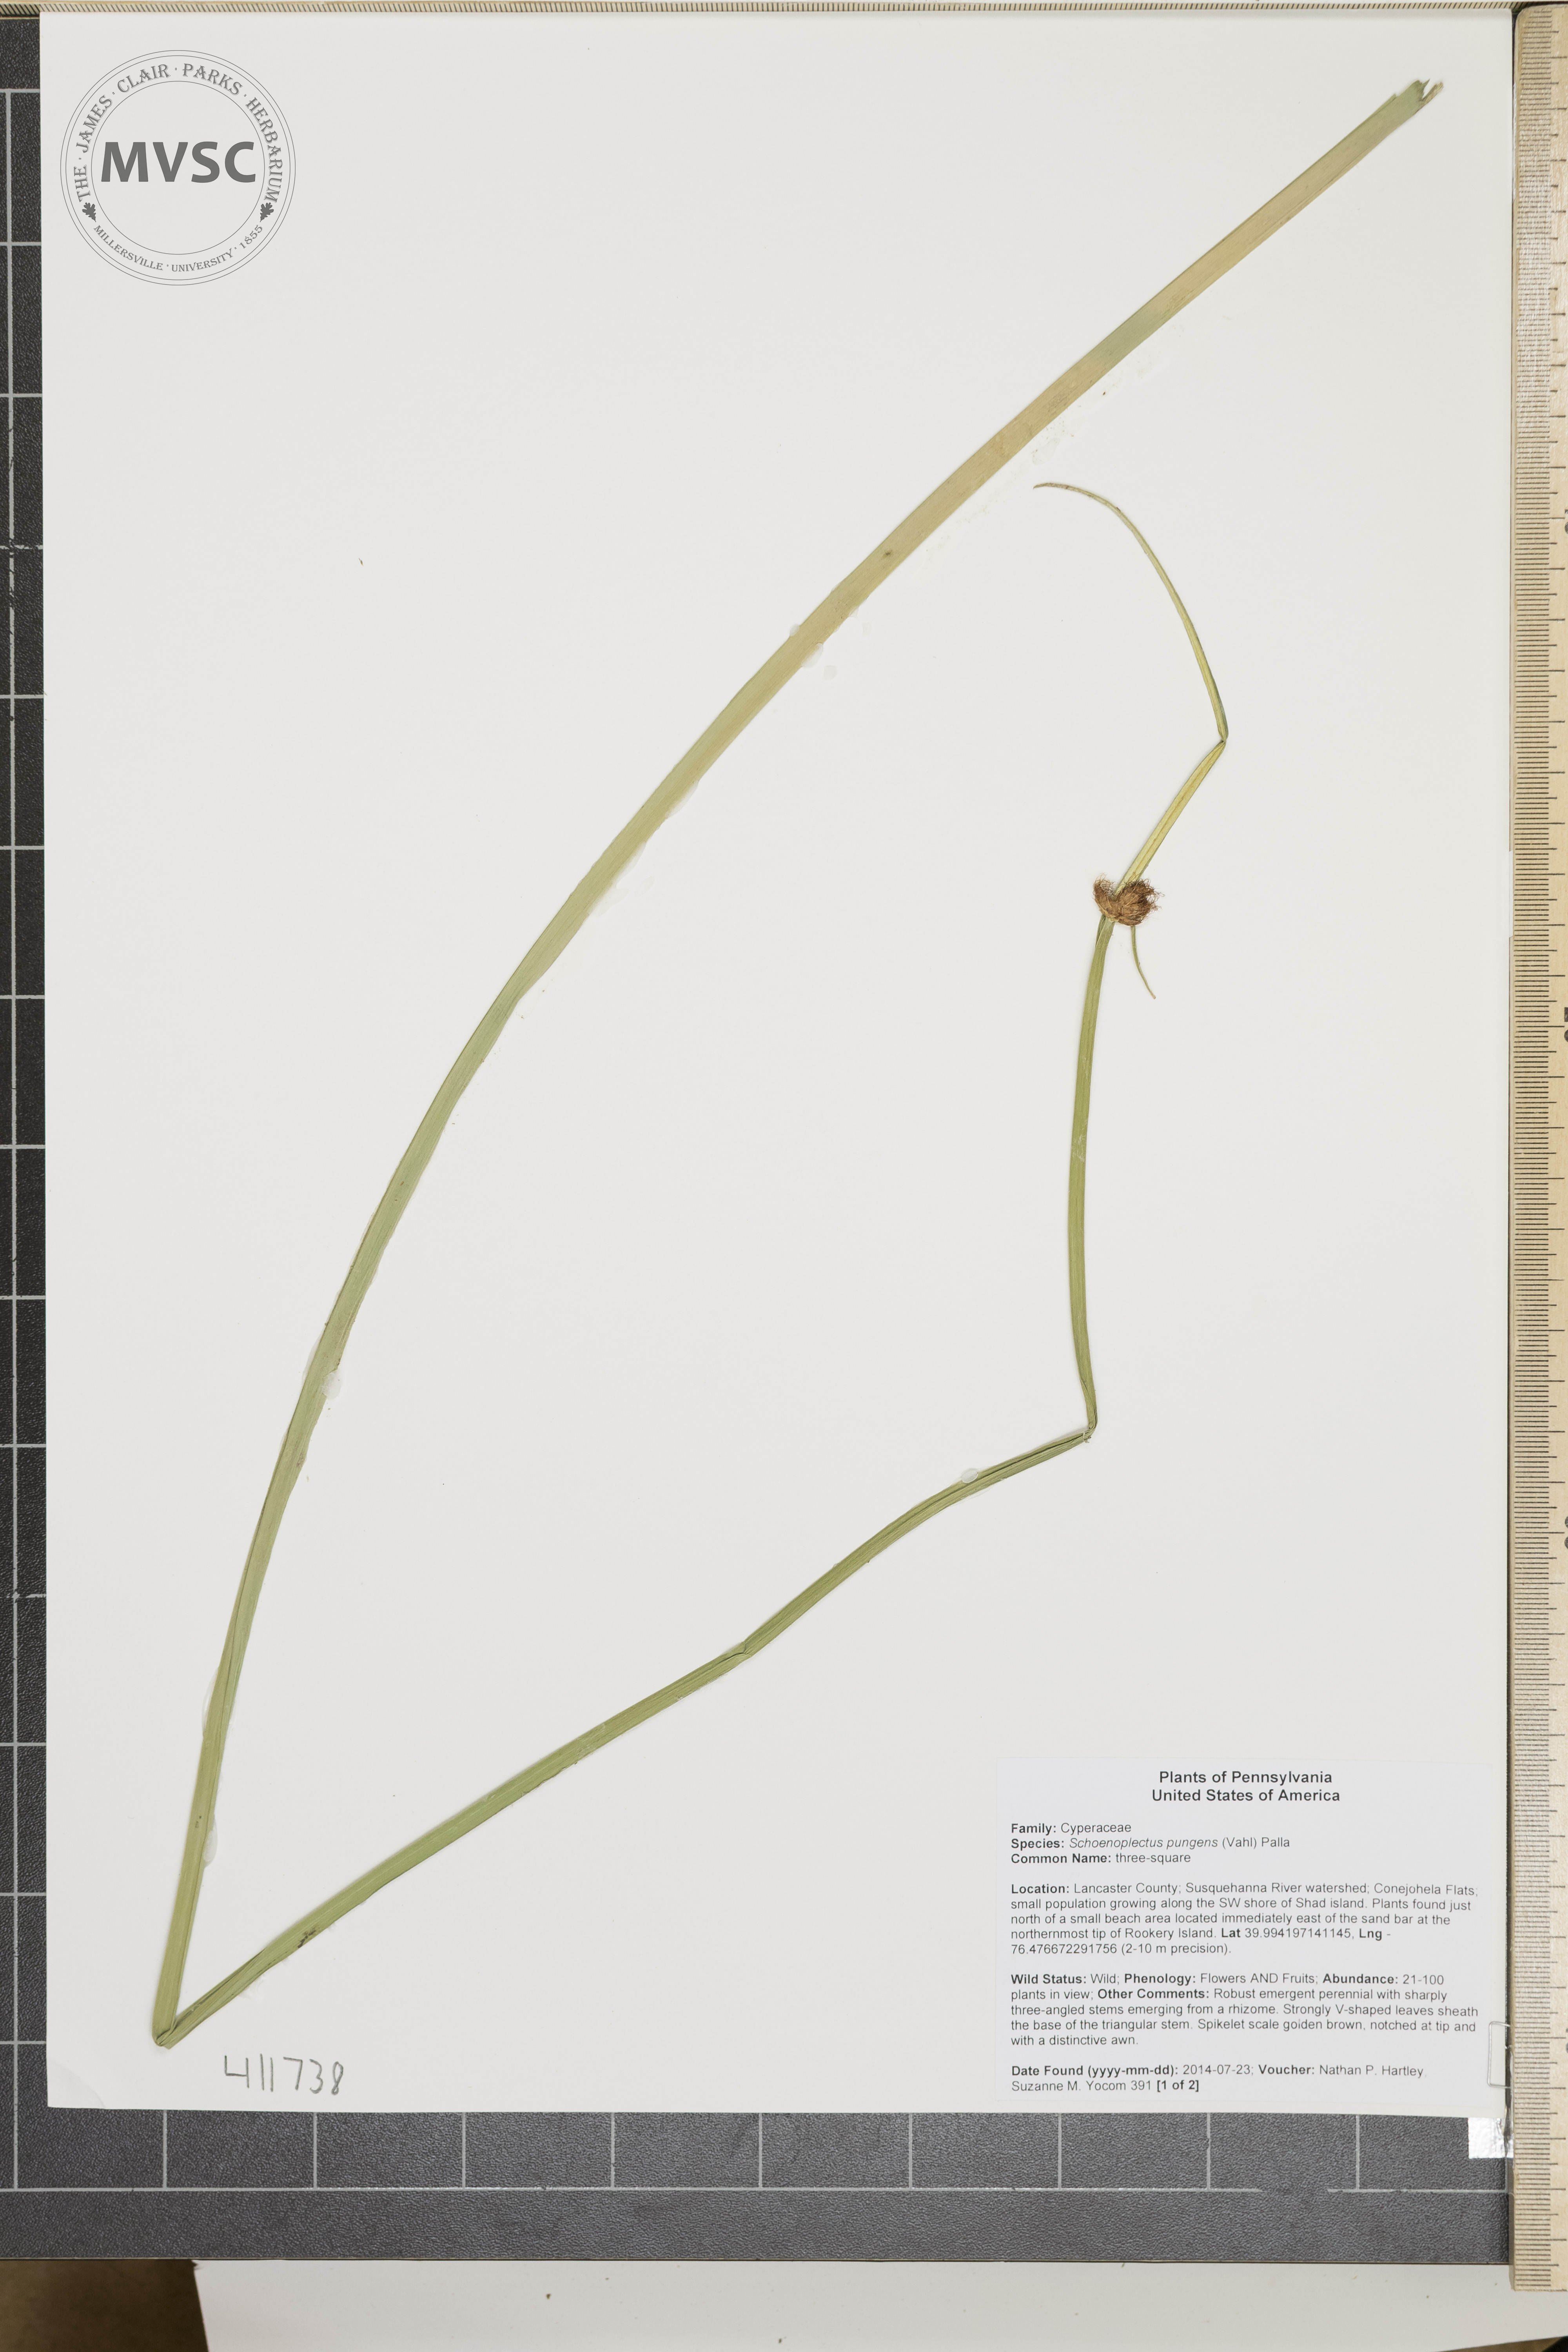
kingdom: Plantae
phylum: Tracheophyta
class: Liliopsida
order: Poales
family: Cyperaceae
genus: Schoenoplectus
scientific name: Schoenoplectus pungens
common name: three-square
